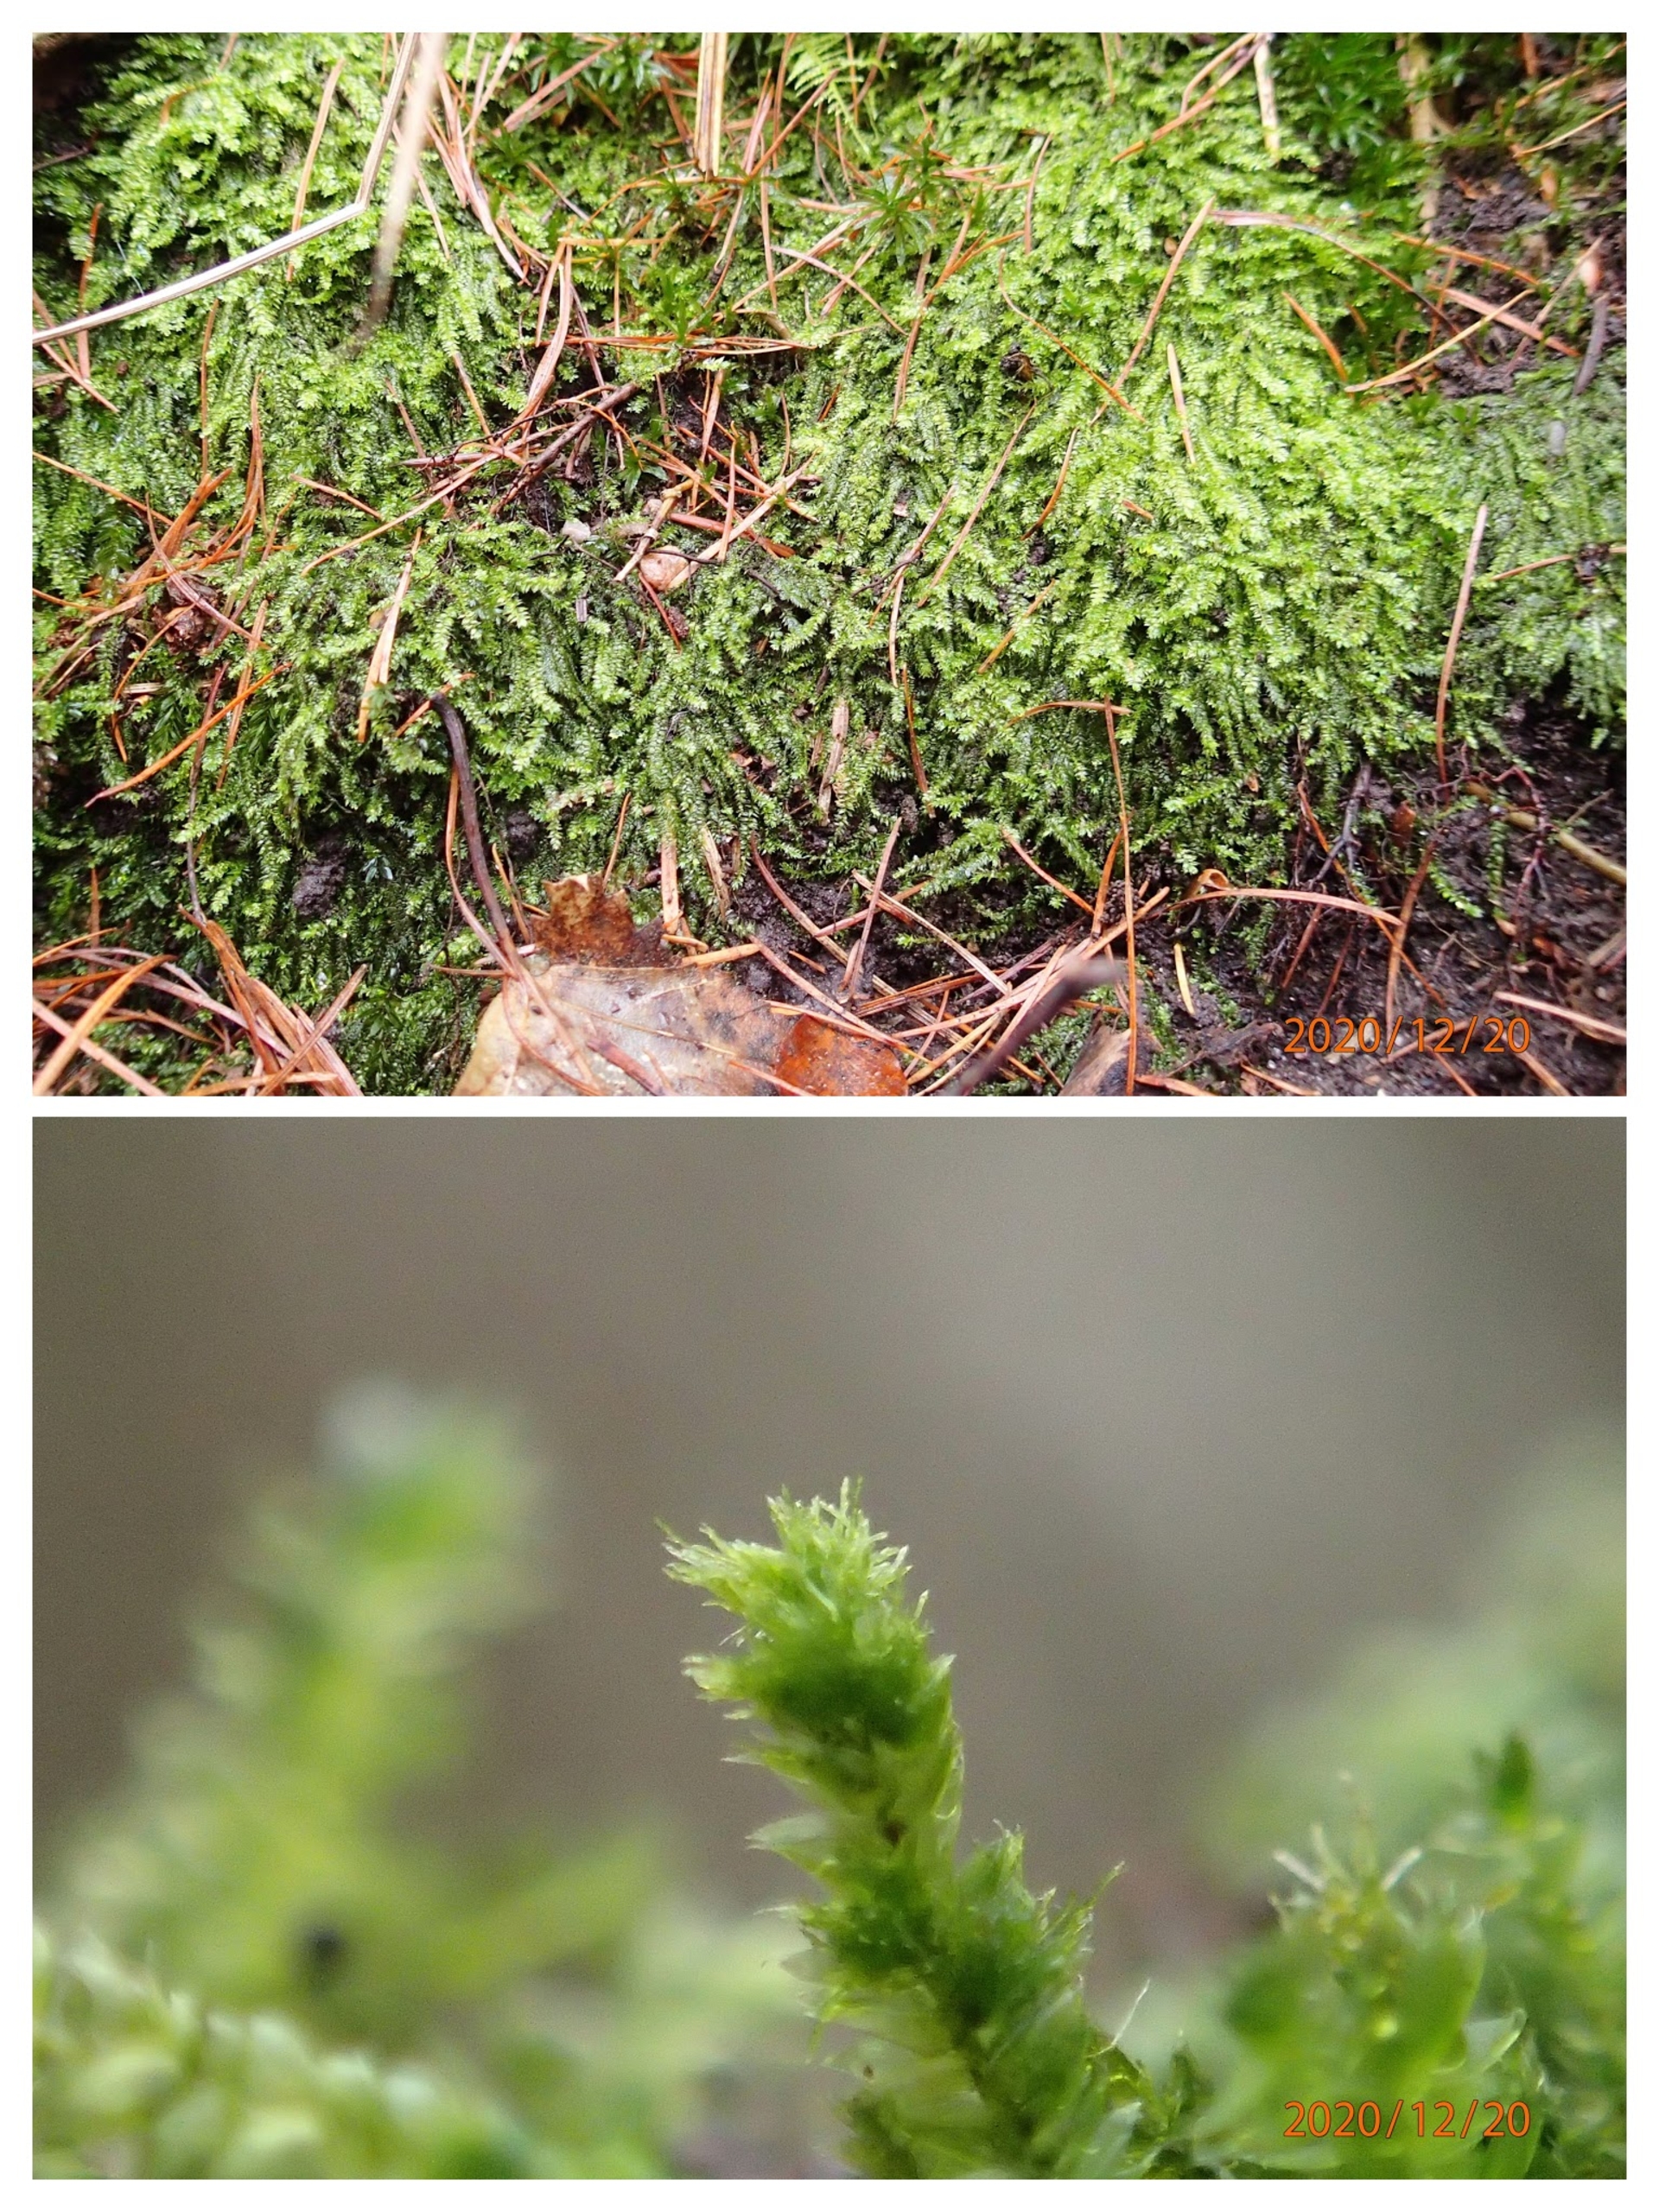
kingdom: Plantae
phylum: Bryophyta
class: Bryopsida
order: Hypnales
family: Plagiotheciaceae
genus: Pseudotaxiphyllum
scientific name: Pseudotaxiphyllum elegans
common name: Skinnende ynglegren
